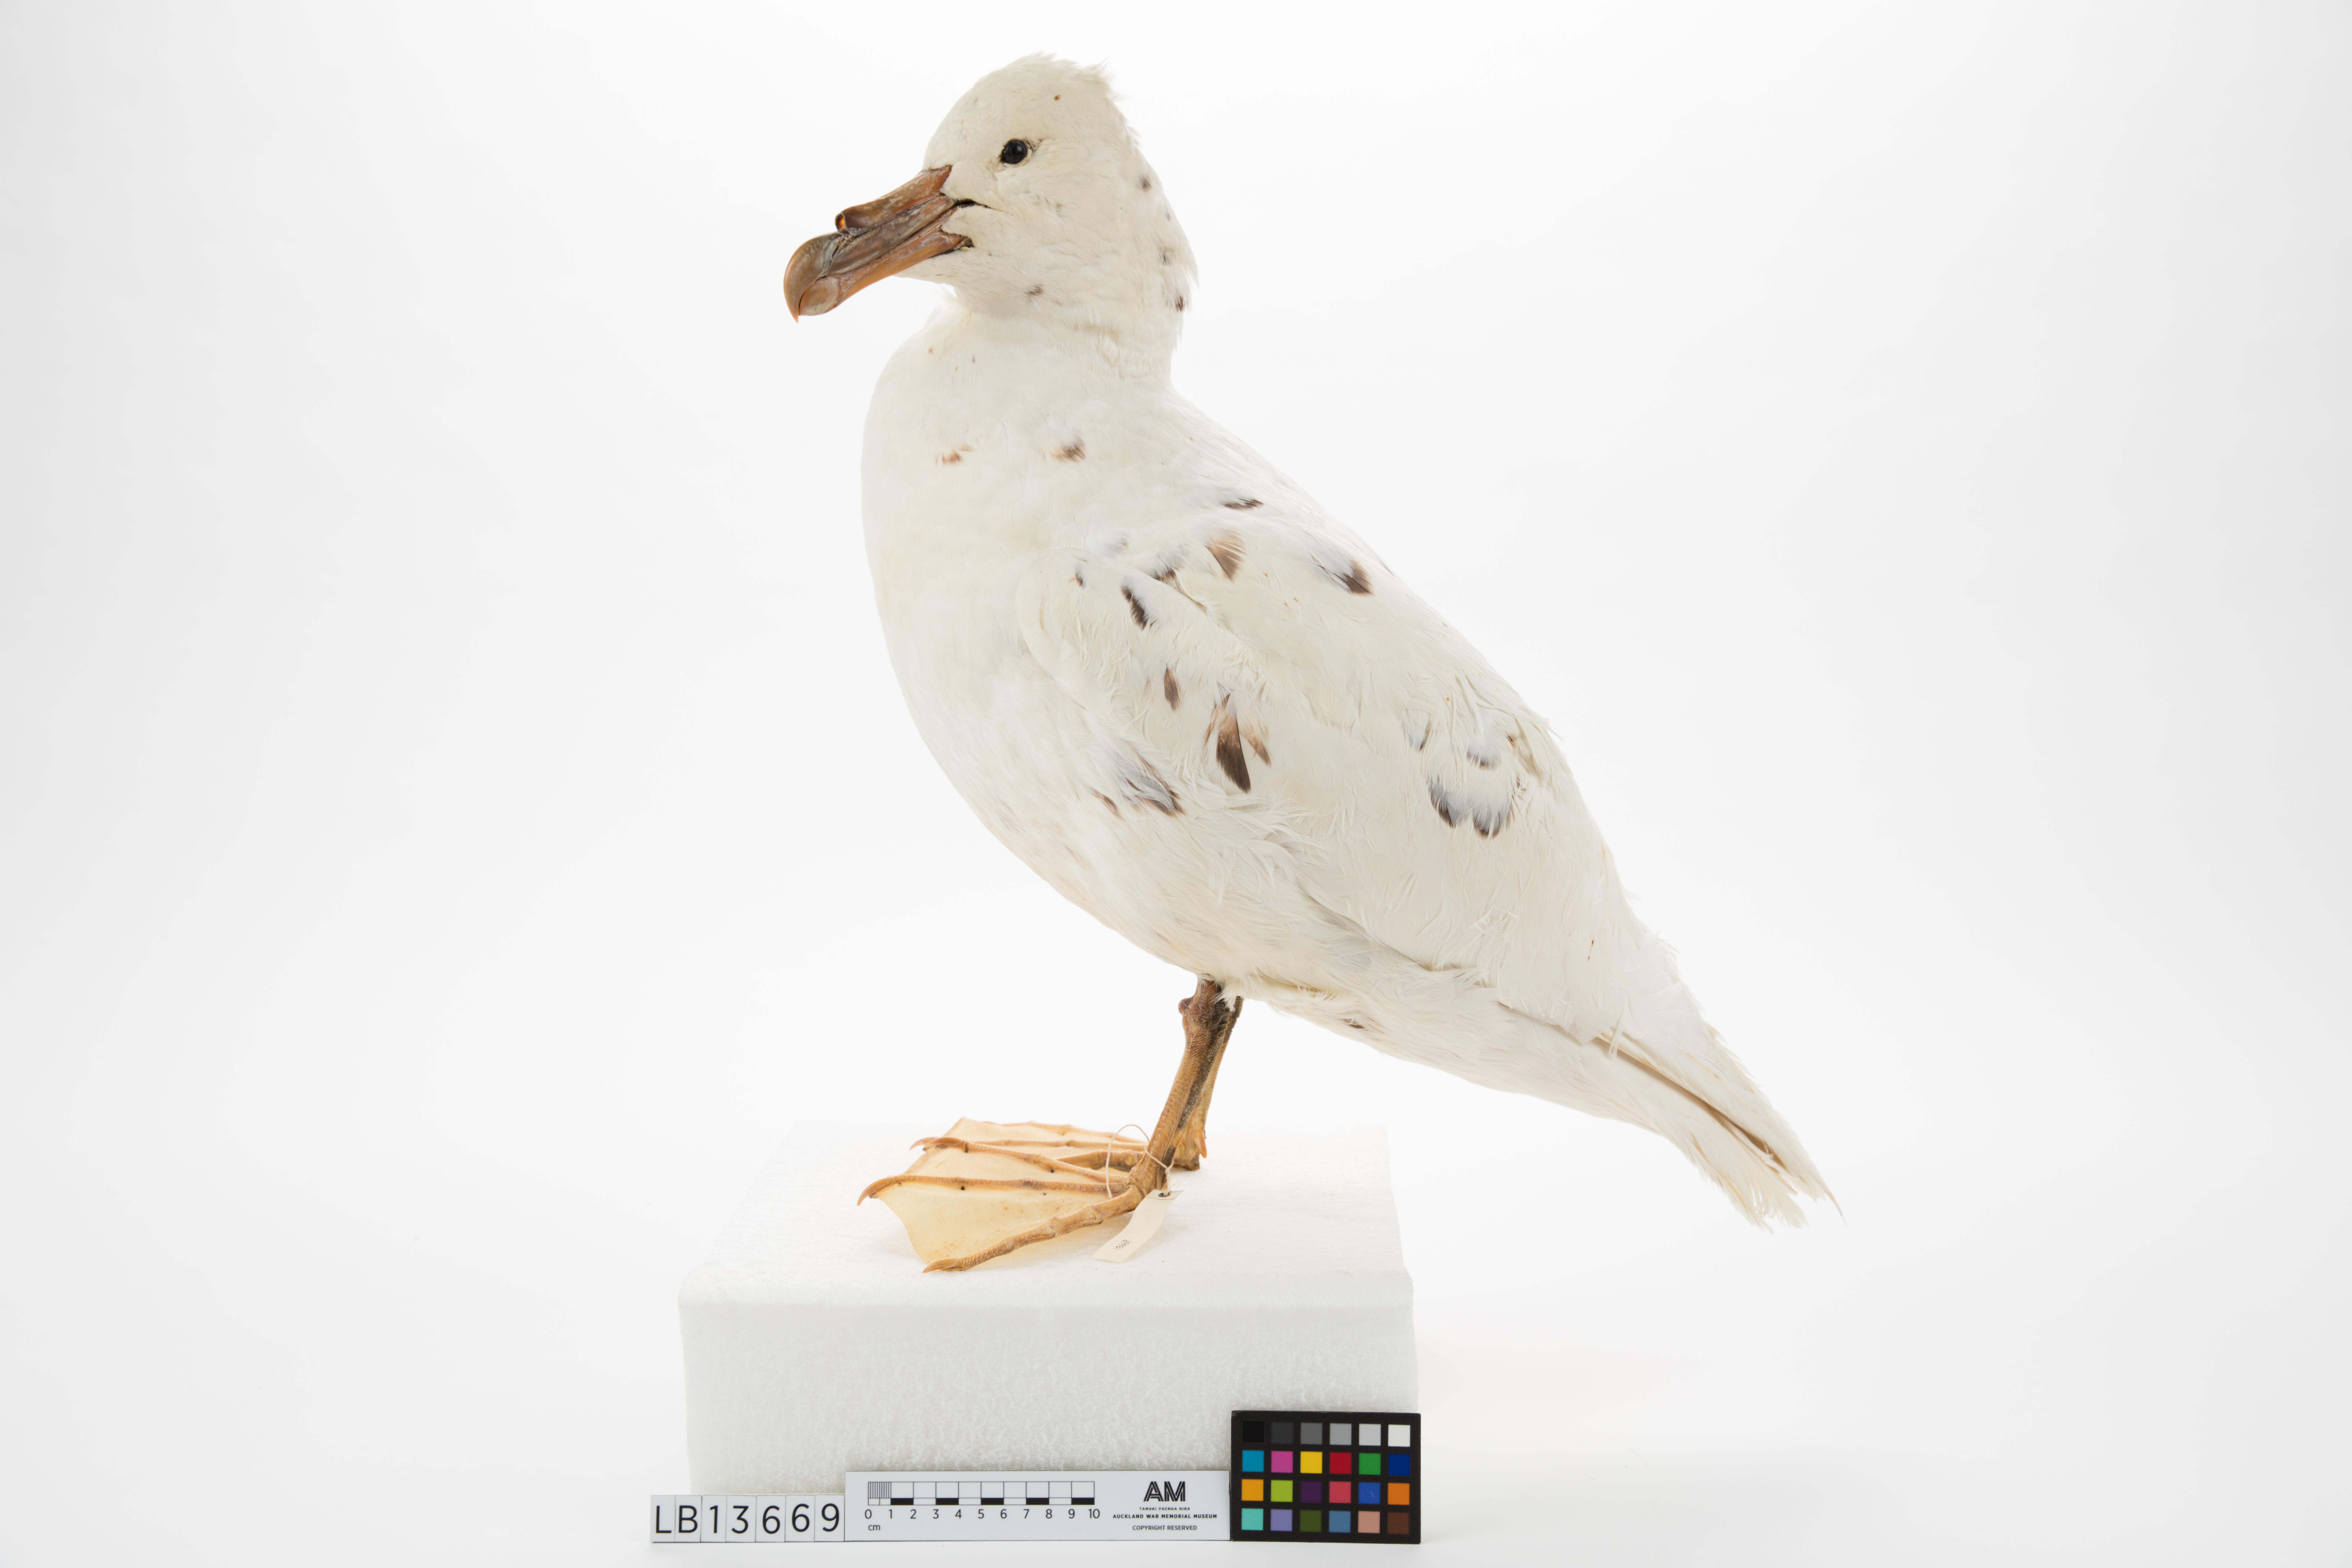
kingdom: Animalia
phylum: Chordata
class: Aves
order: Procellariiformes
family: Procellariidae
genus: Macronectes
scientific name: Macronectes giganteus
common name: Southern giant petrel
